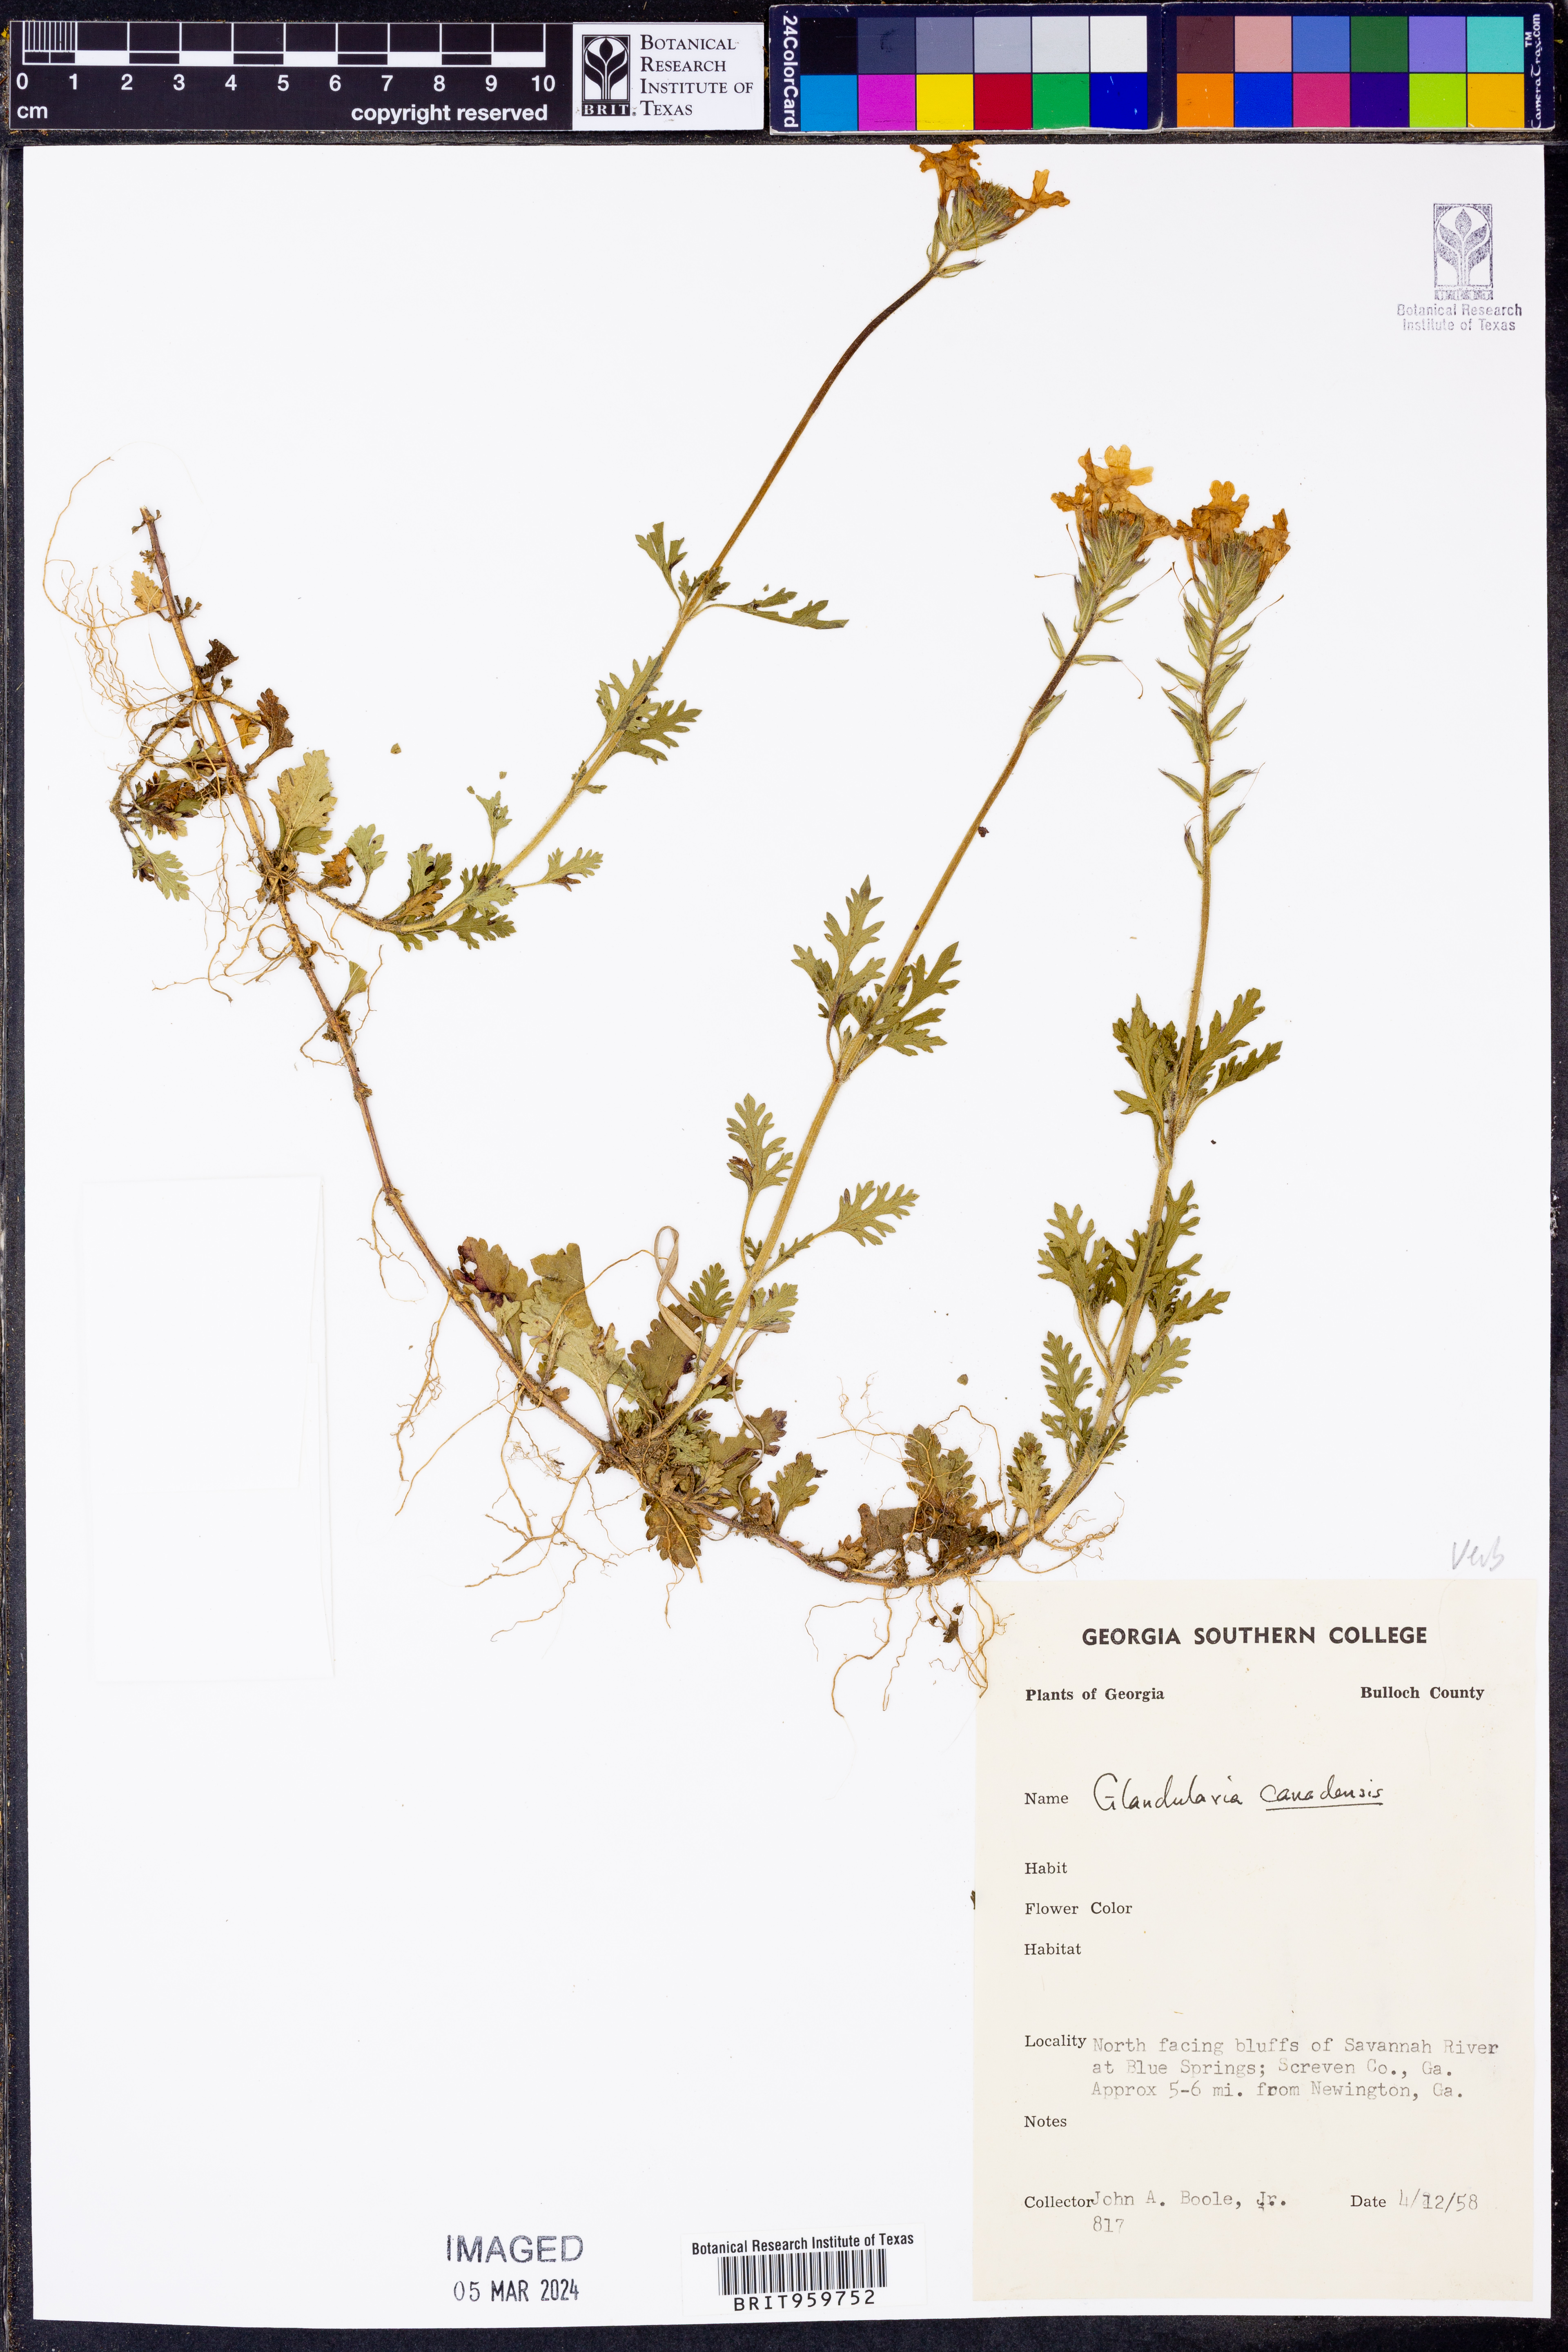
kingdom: Plantae
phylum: Tracheophyta
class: Magnoliopsida
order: Lamiales
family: Verbenaceae
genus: Verbena
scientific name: Verbena canadensis
